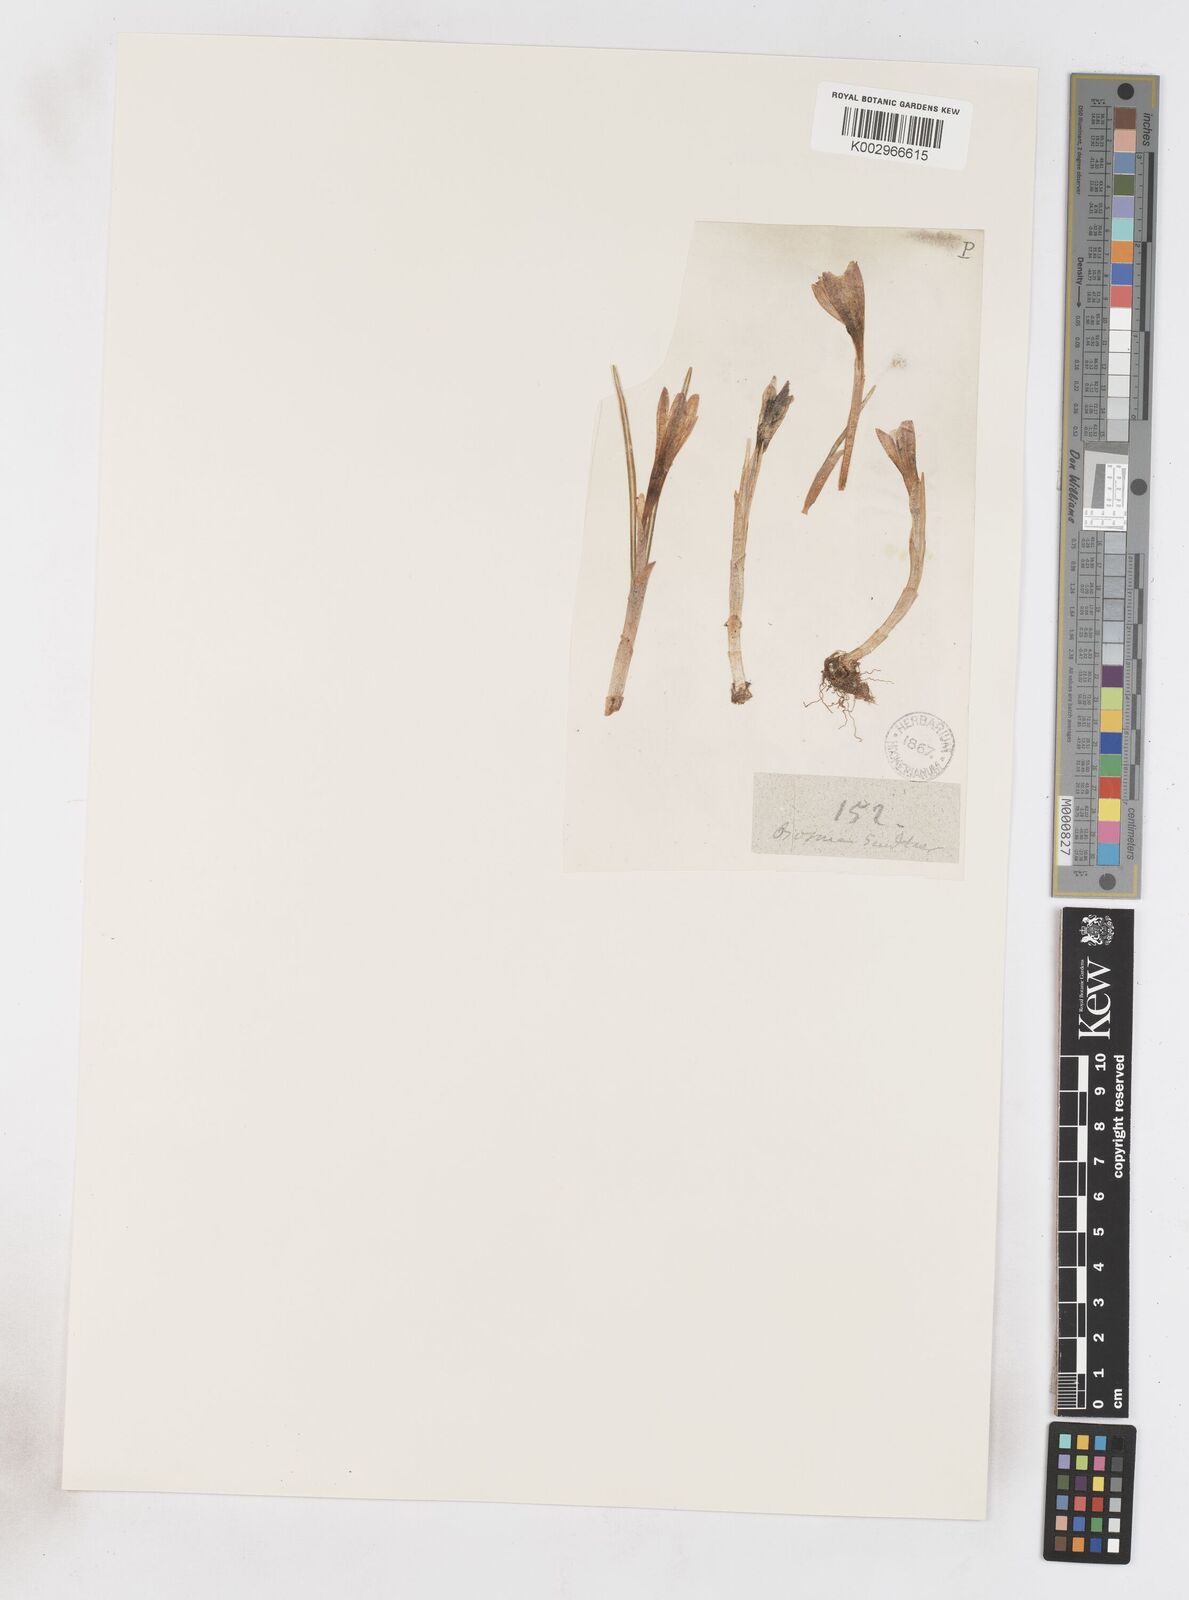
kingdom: Plantae
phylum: Tracheophyta
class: Liliopsida
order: Asparagales
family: Iridaceae
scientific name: Iridaceae
